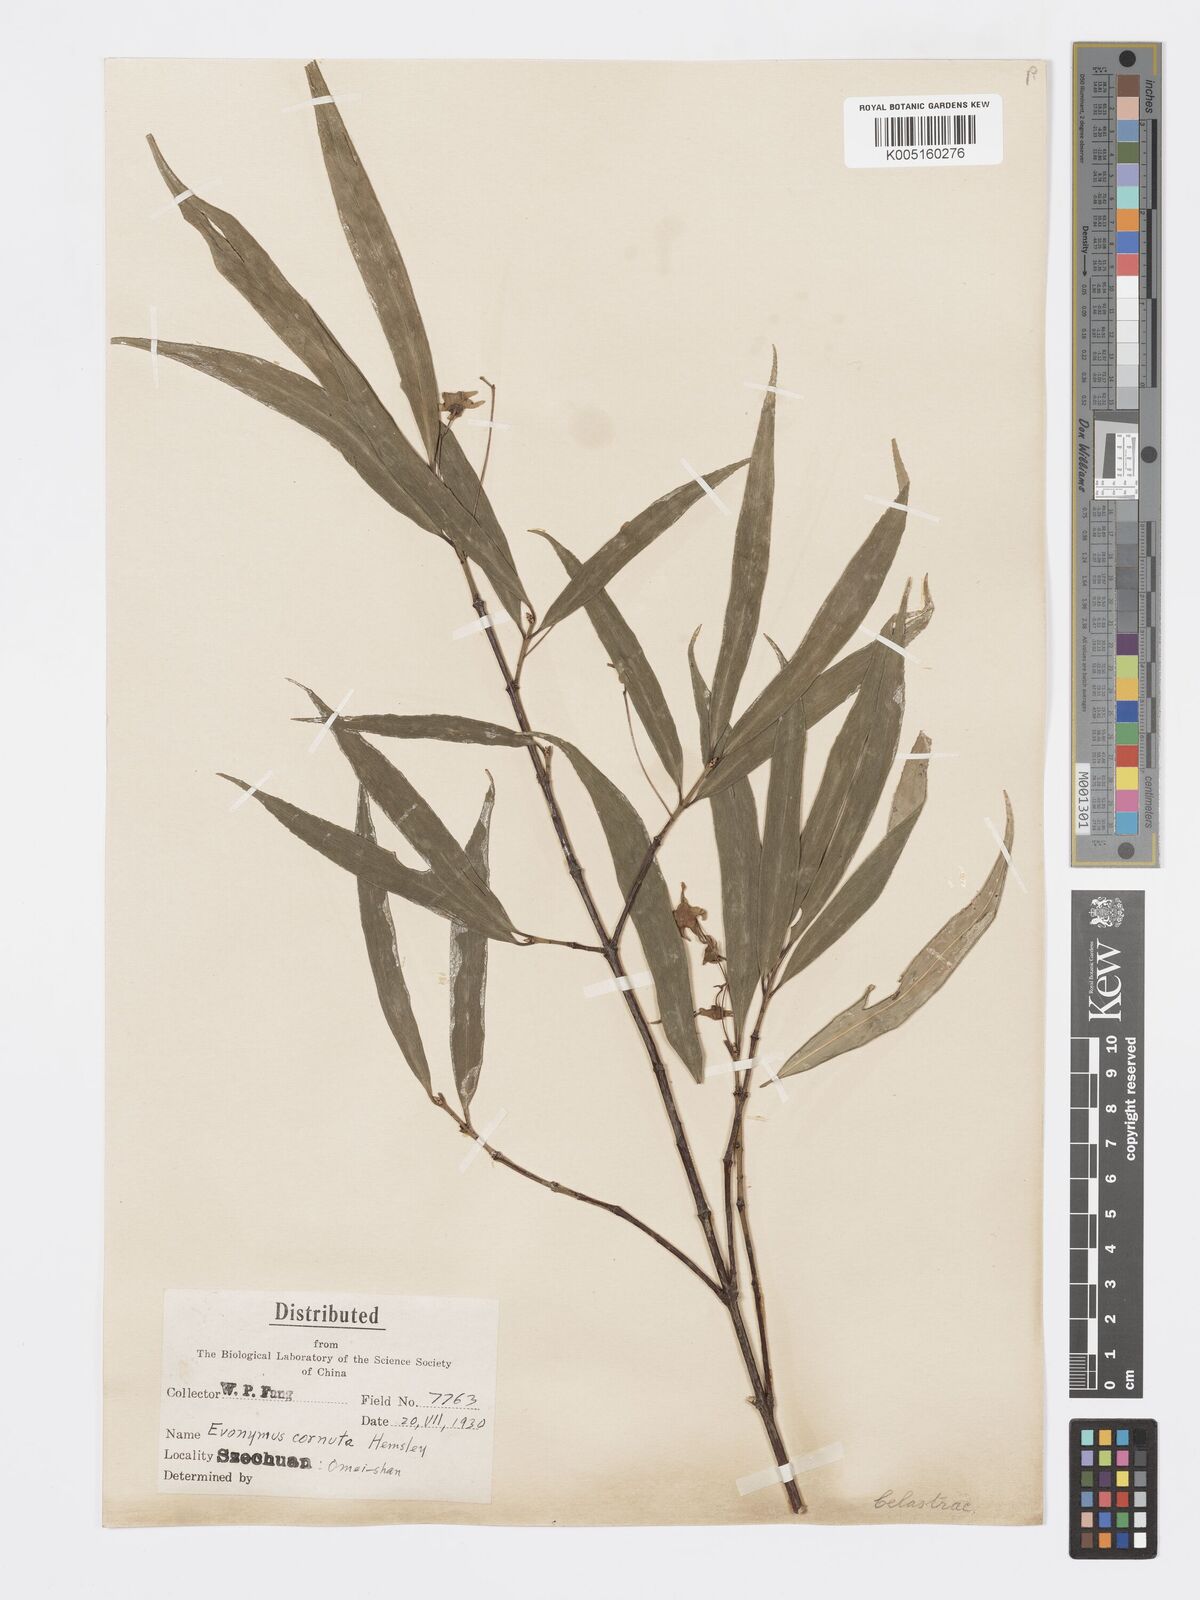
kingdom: Plantae
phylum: Tracheophyta
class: Magnoliopsida
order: Celastrales
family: Celastraceae
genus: Euonymus
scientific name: Euonymus cornutus
